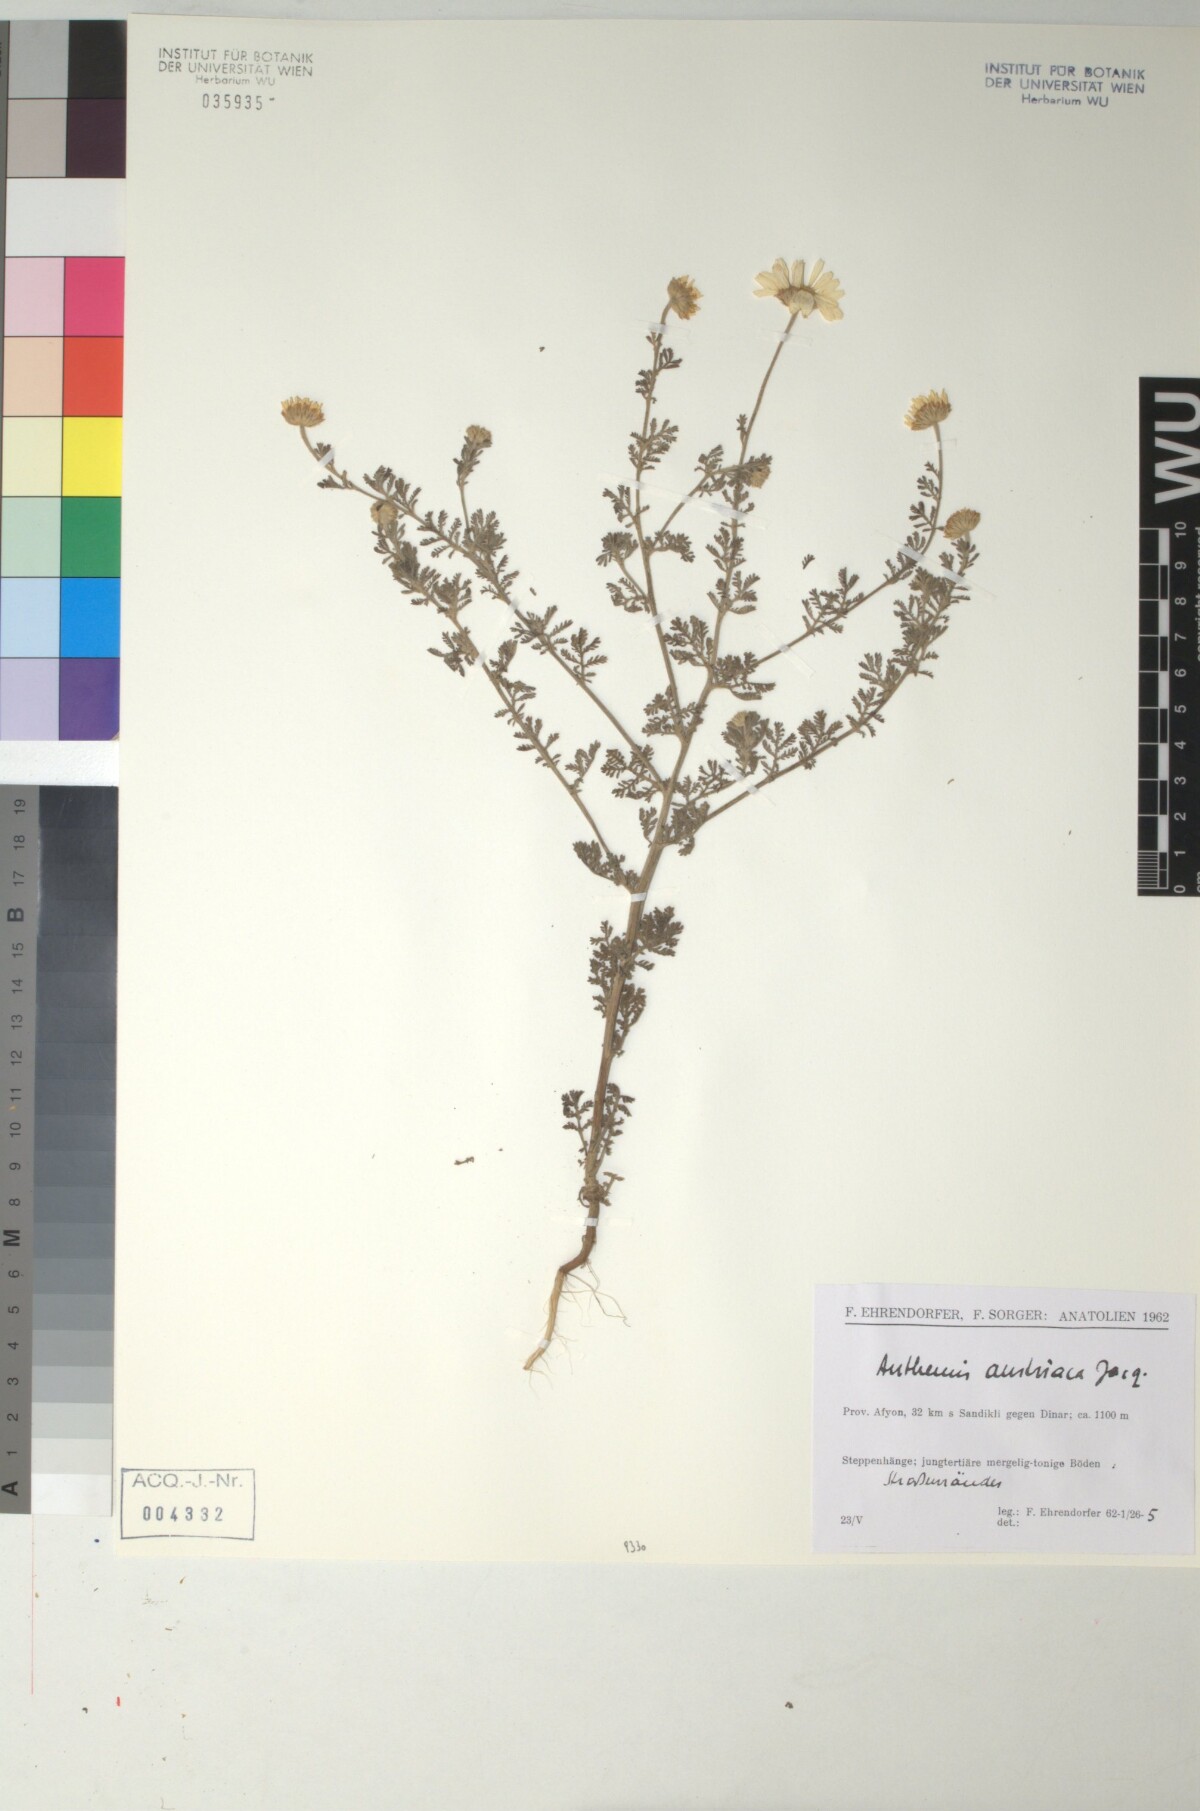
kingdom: Plantae
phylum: Tracheophyta
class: Magnoliopsida
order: Asterales
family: Asteraceae
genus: Cota
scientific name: Cota austriaca
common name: Austrian chamomile
